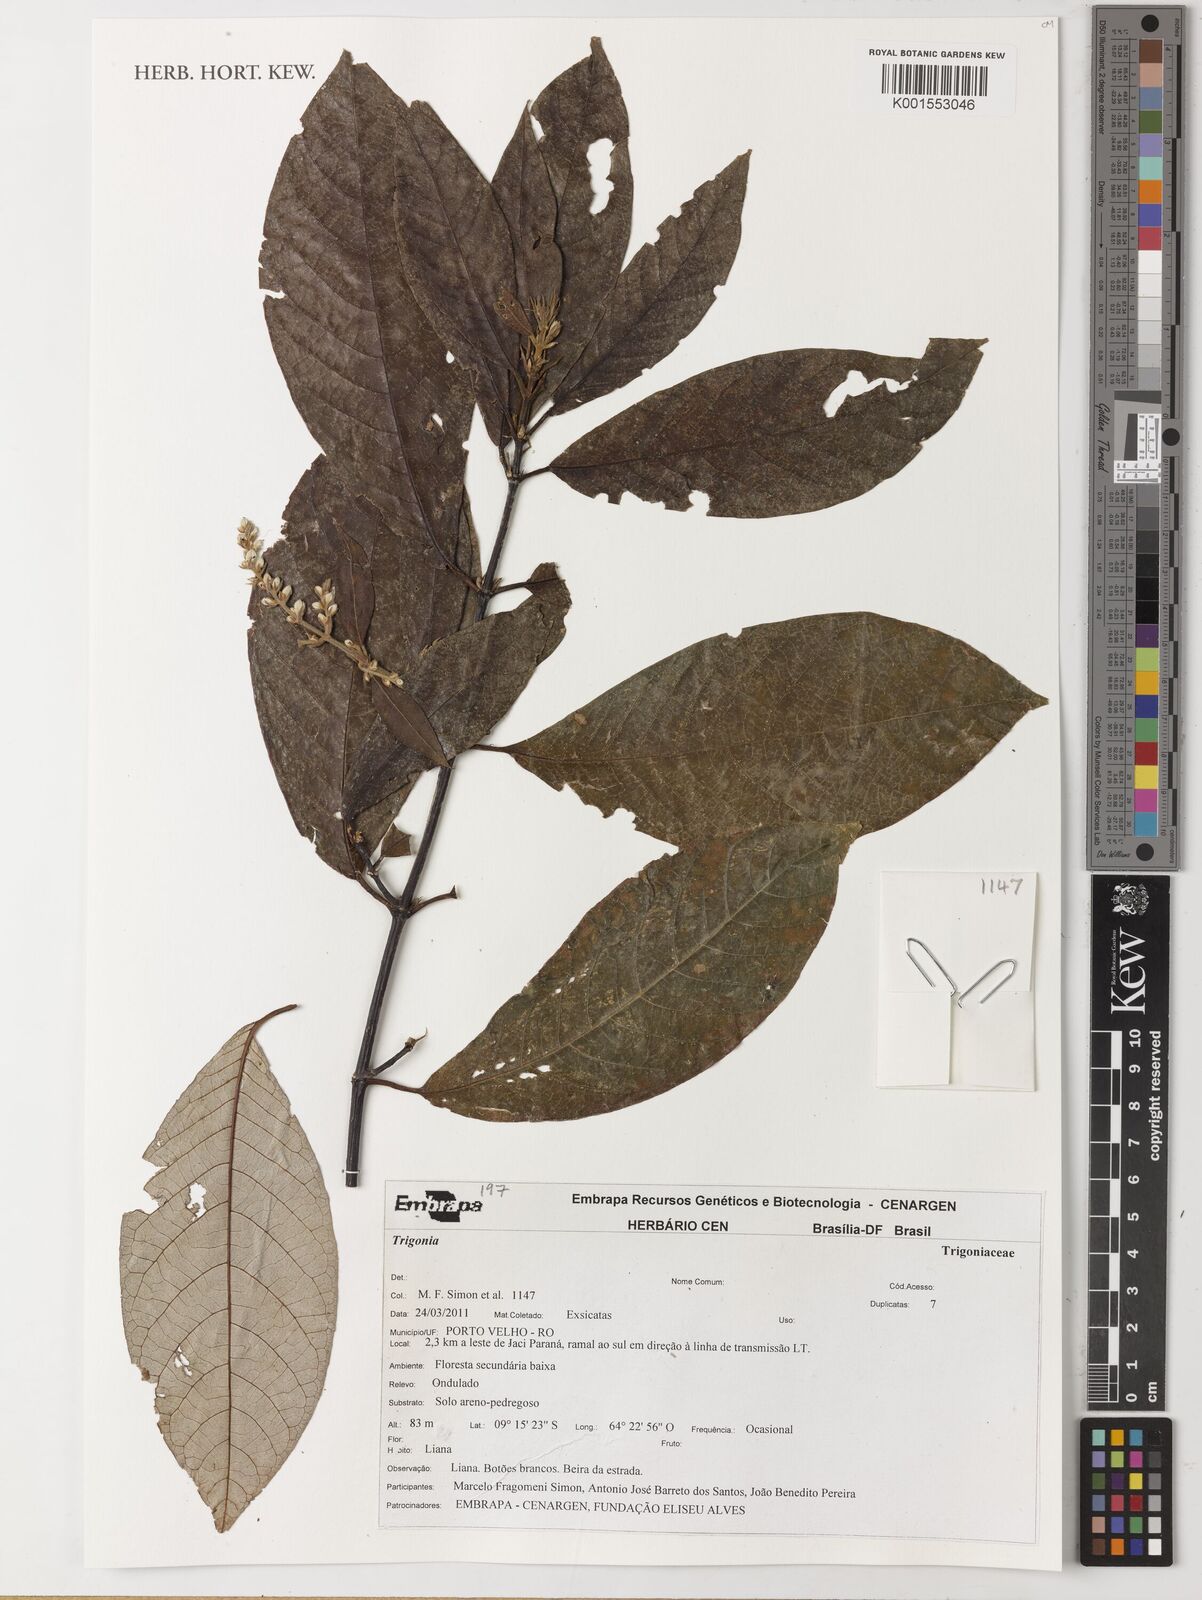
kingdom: Plantae
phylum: Tracheophyta
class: Magnoliopsida
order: Malpighiales
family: Trigoniaceae
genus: Trigonia
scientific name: Trigonia
